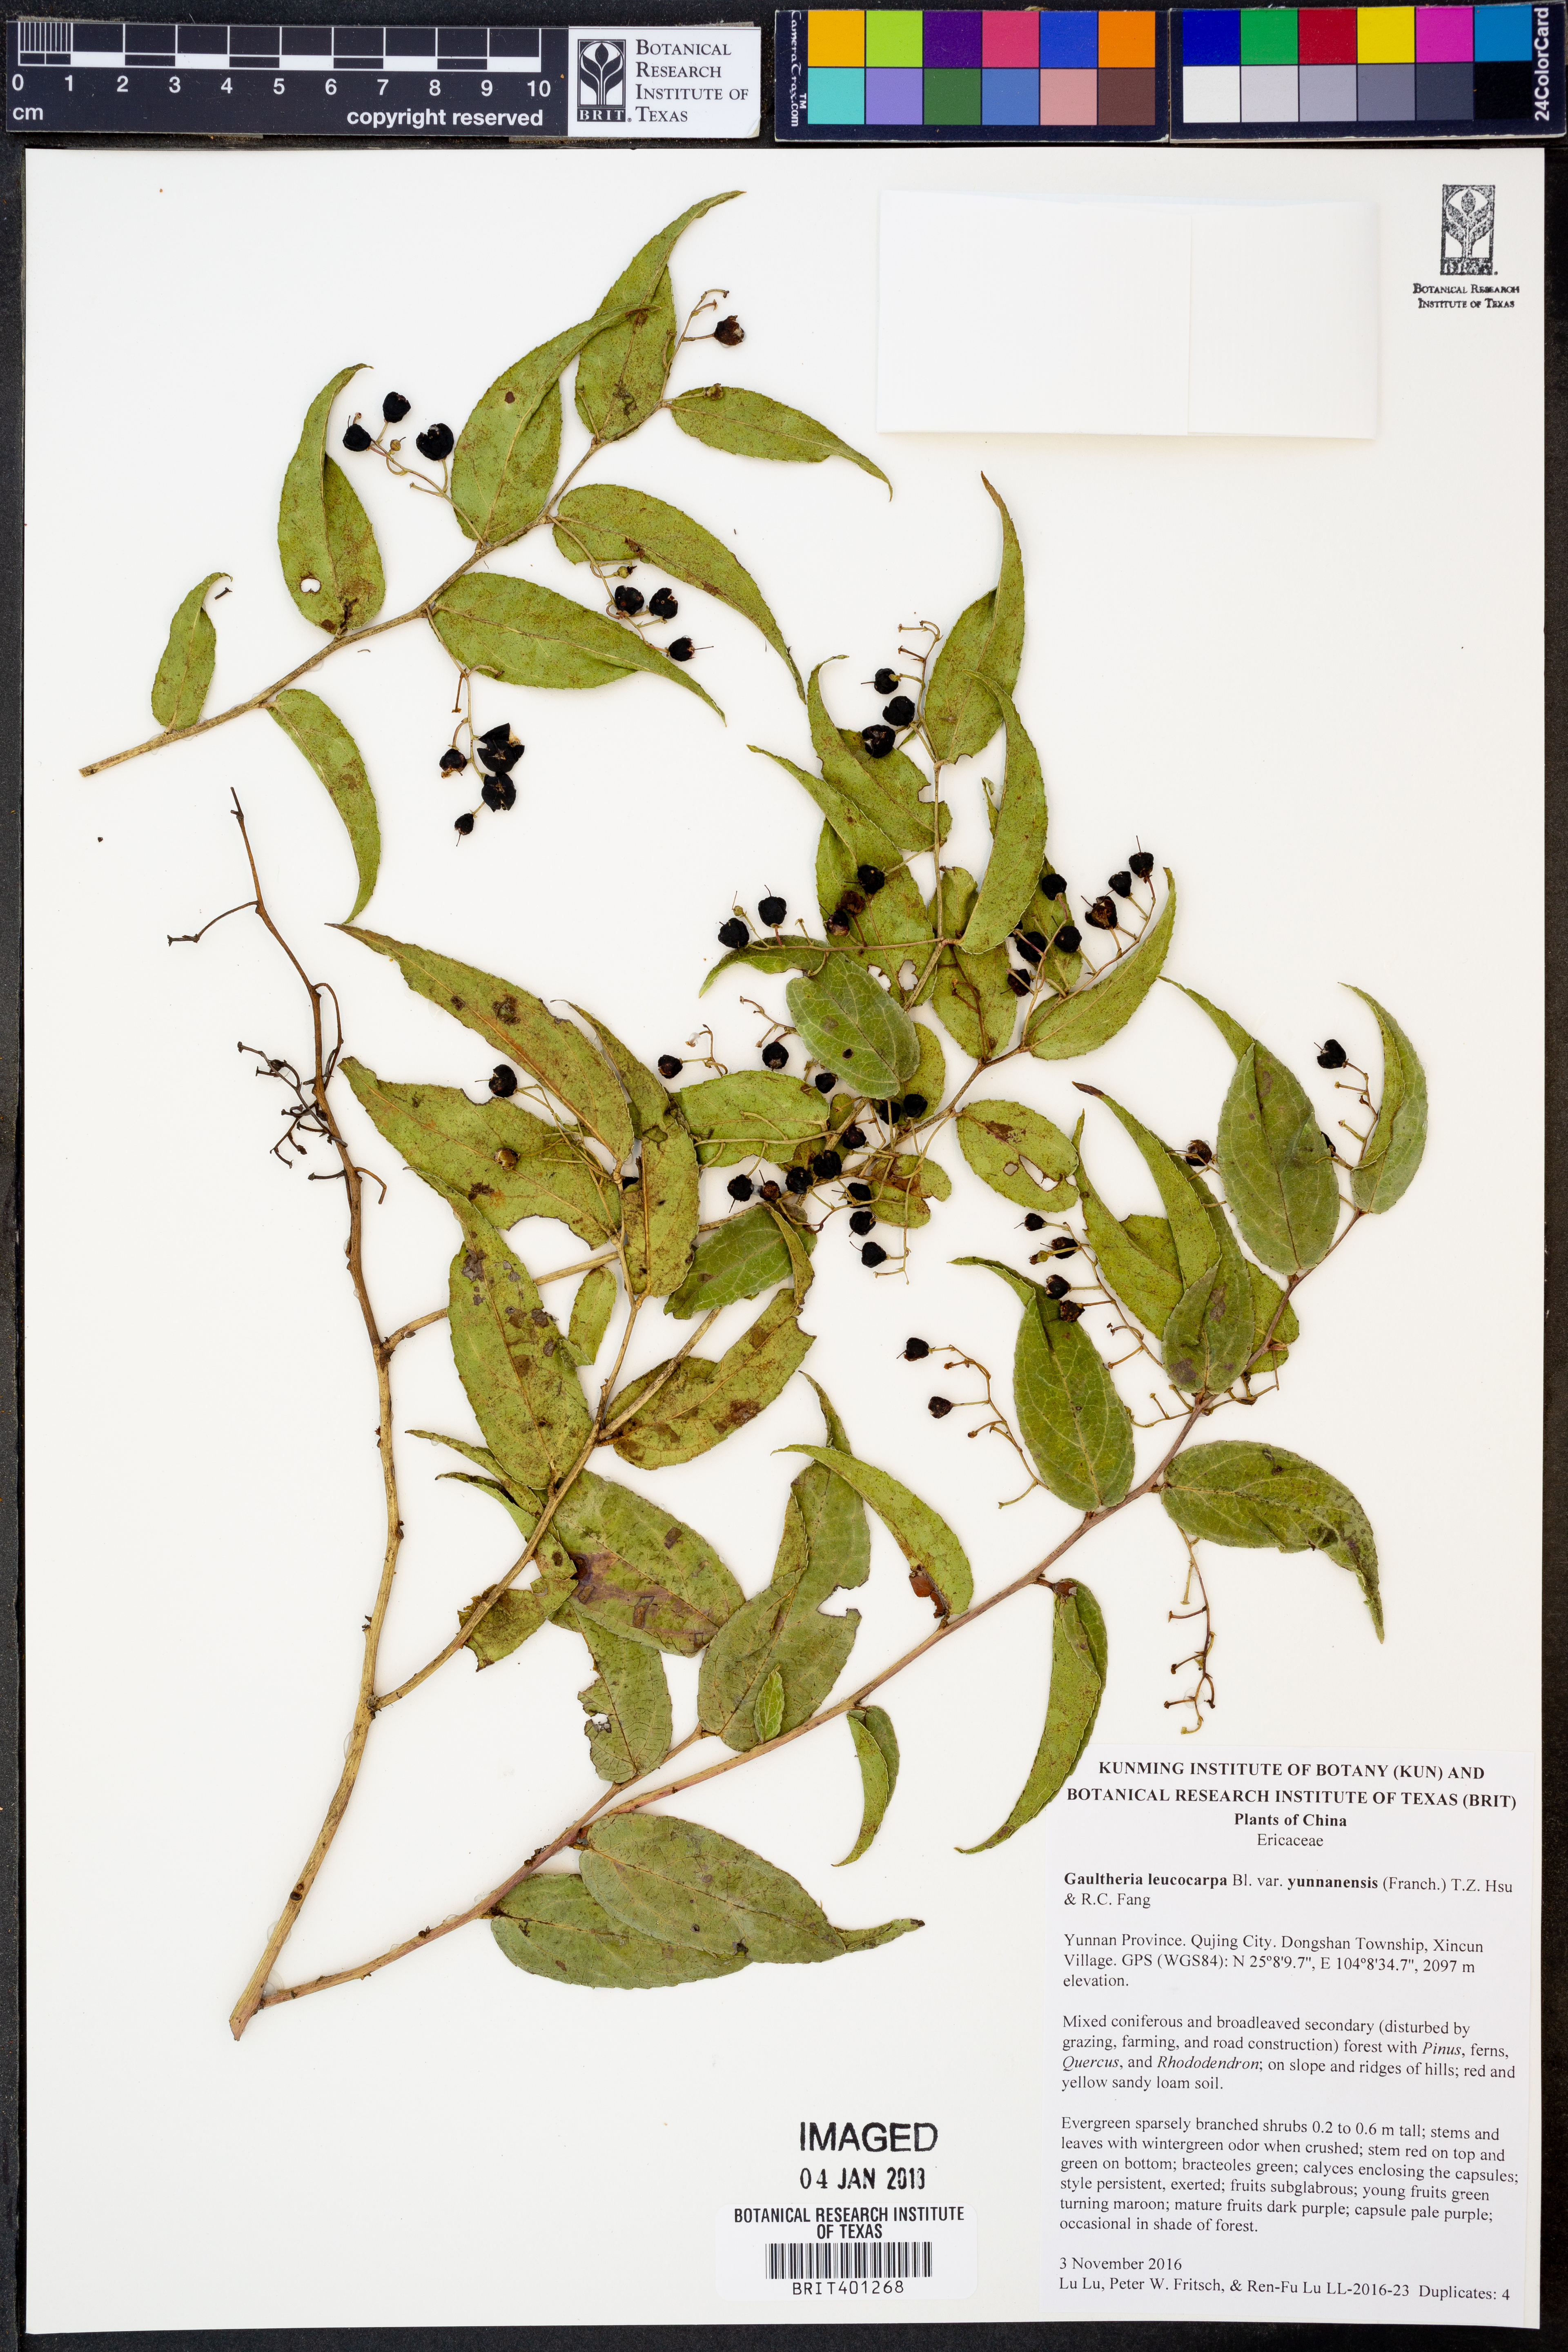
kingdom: Plantae
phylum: Tracheophyta
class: Magnoliopsida
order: Ericales
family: Ericaceae
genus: Gaultheria
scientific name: Gaultheria leucocarpa
